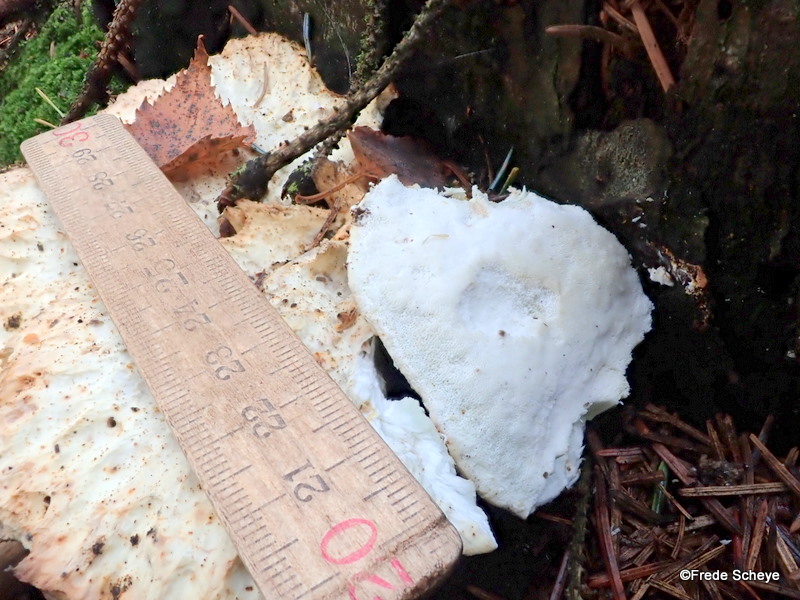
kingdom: Fungi
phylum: Basidiomycota
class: Agaricomycetes
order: Polyporales
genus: Calcipostia
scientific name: Calcipostia guttulata
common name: dråbe-kødporesvamp
